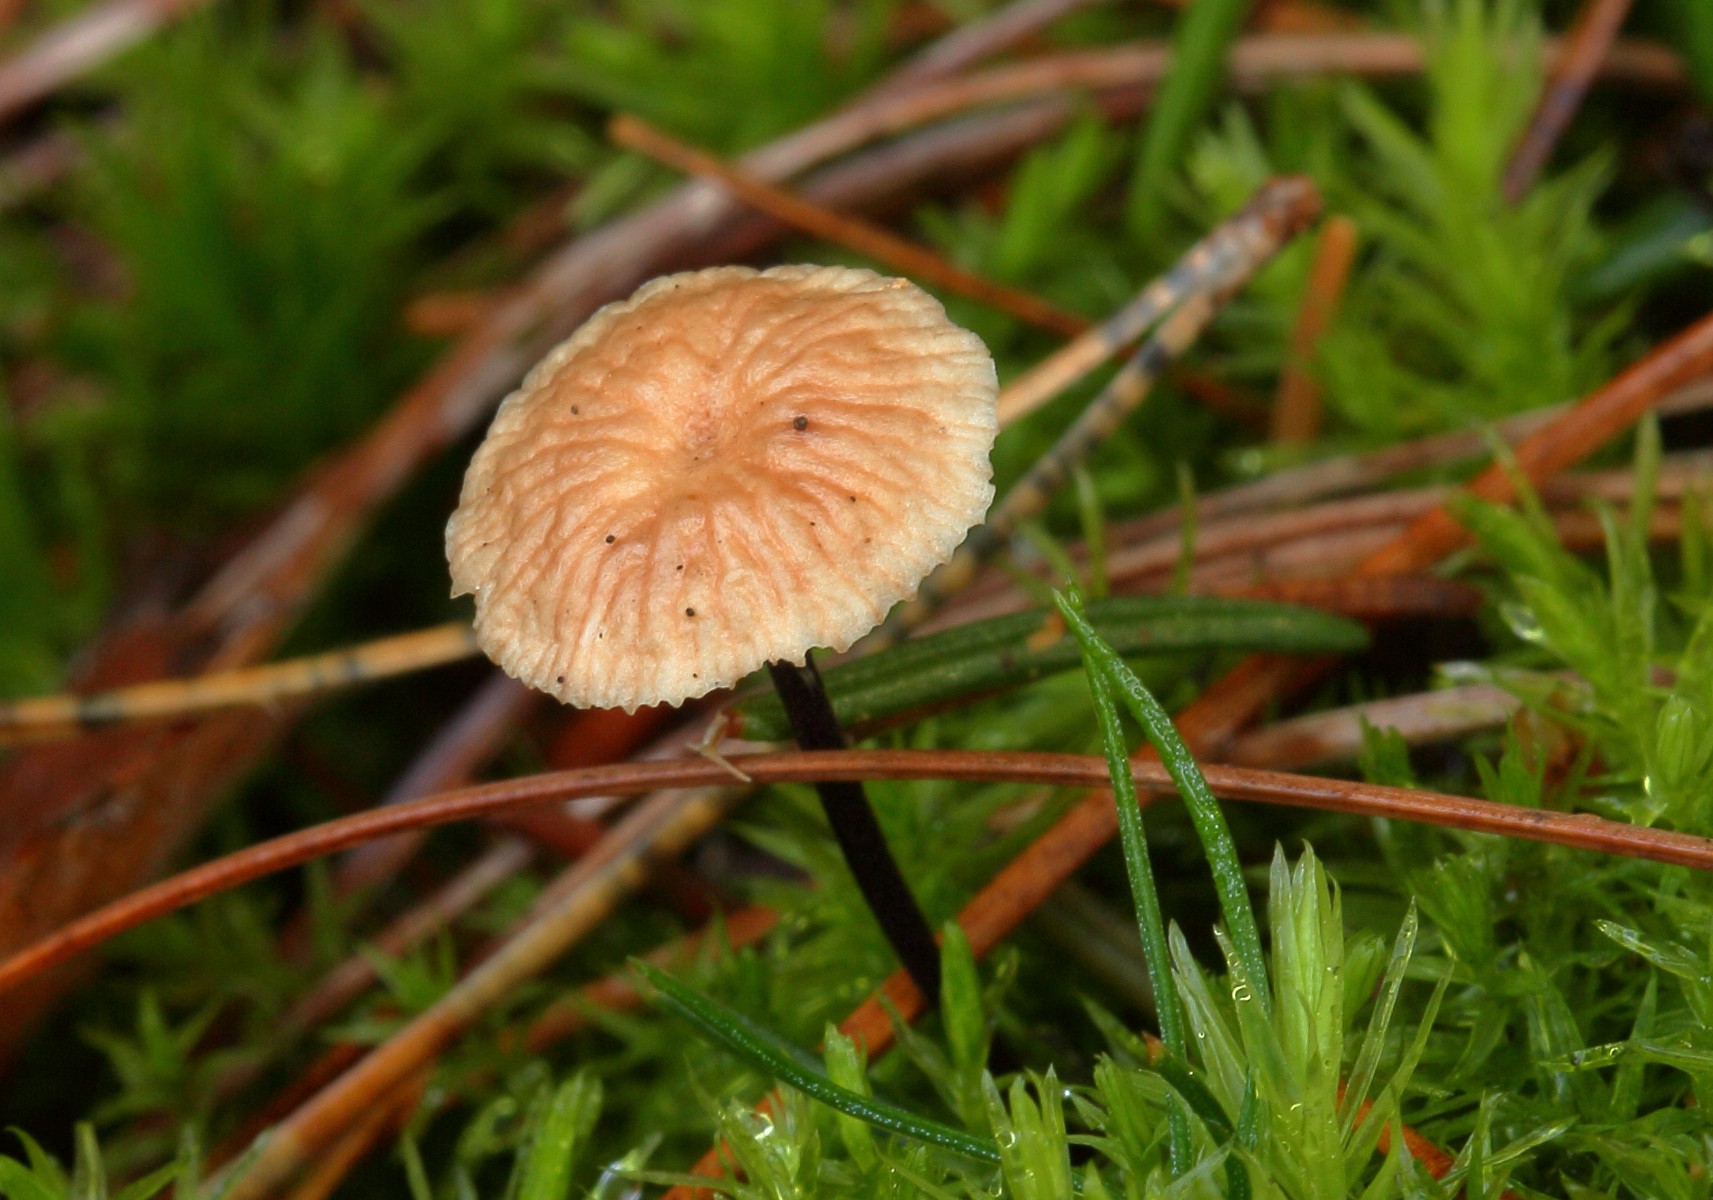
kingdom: Fungi
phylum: Basidiomycota
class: Agaricomycetes
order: Agaricales
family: Omphalotaceae
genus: Paragymnopus
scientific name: Paragymnopus perforans
